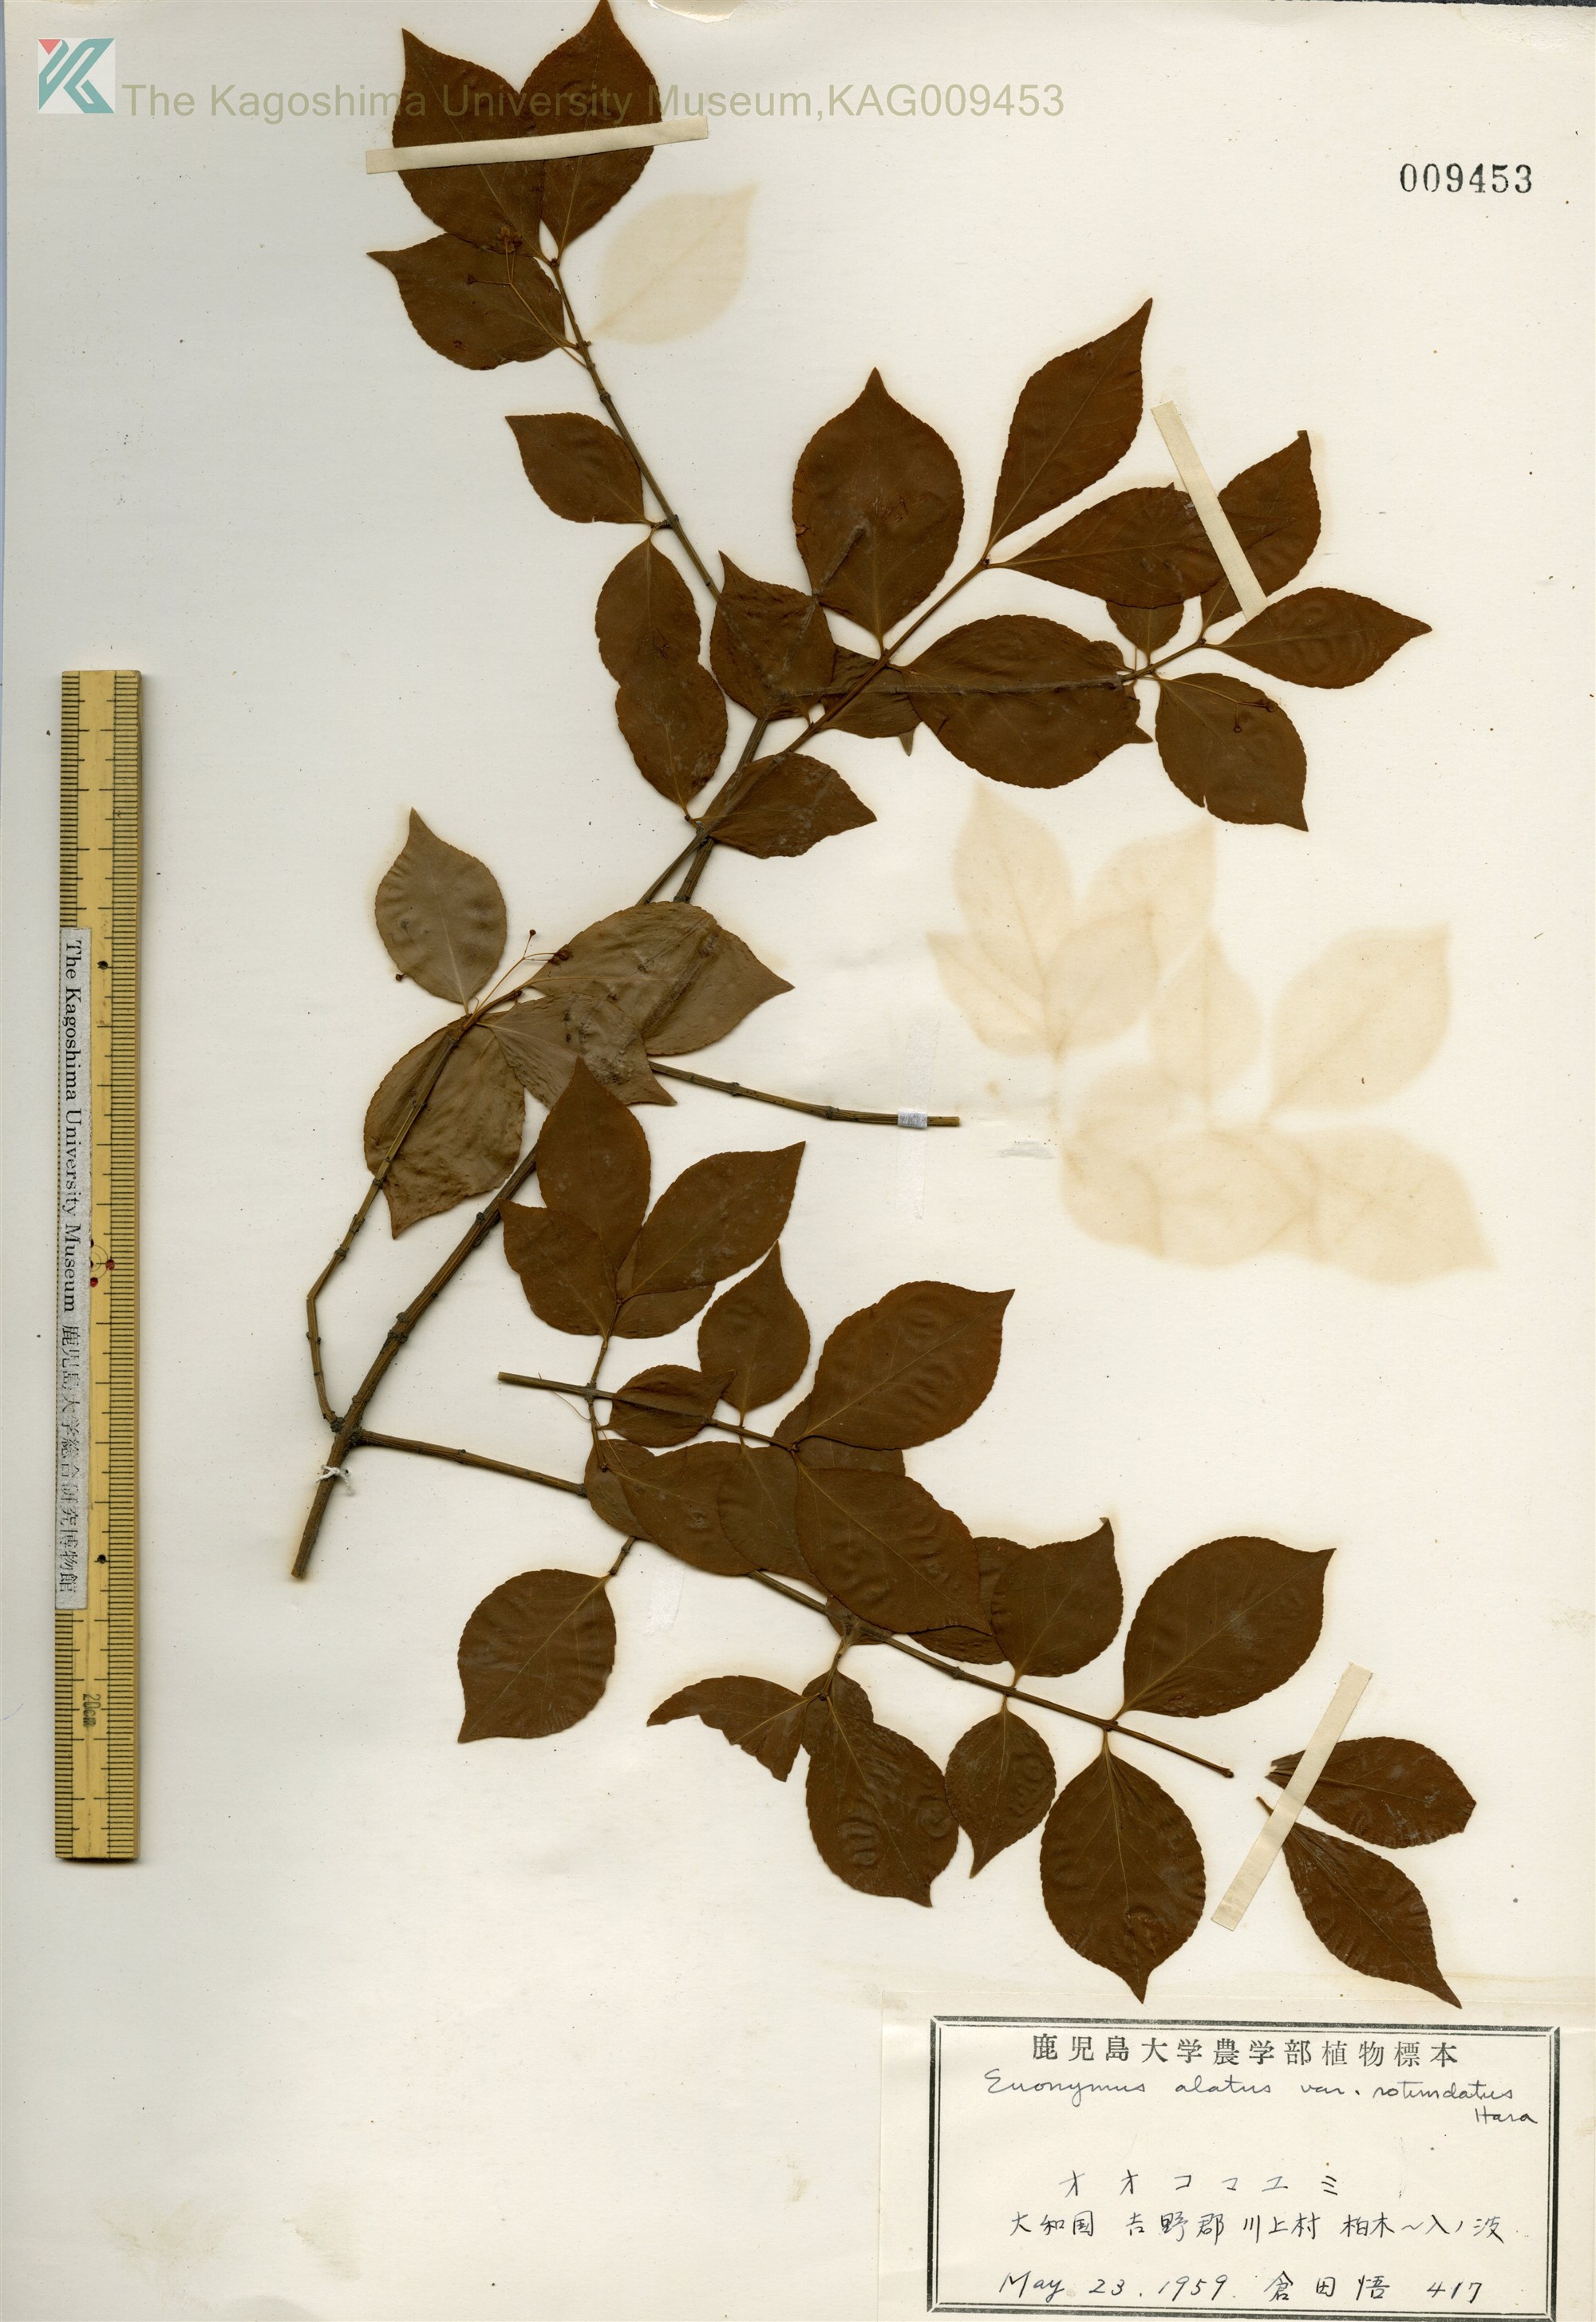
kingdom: Plantae
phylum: Tracheophyta
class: Magnoliopsida
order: Celastrales
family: Celastraceae
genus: Euonymus
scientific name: Euonymus alatus
